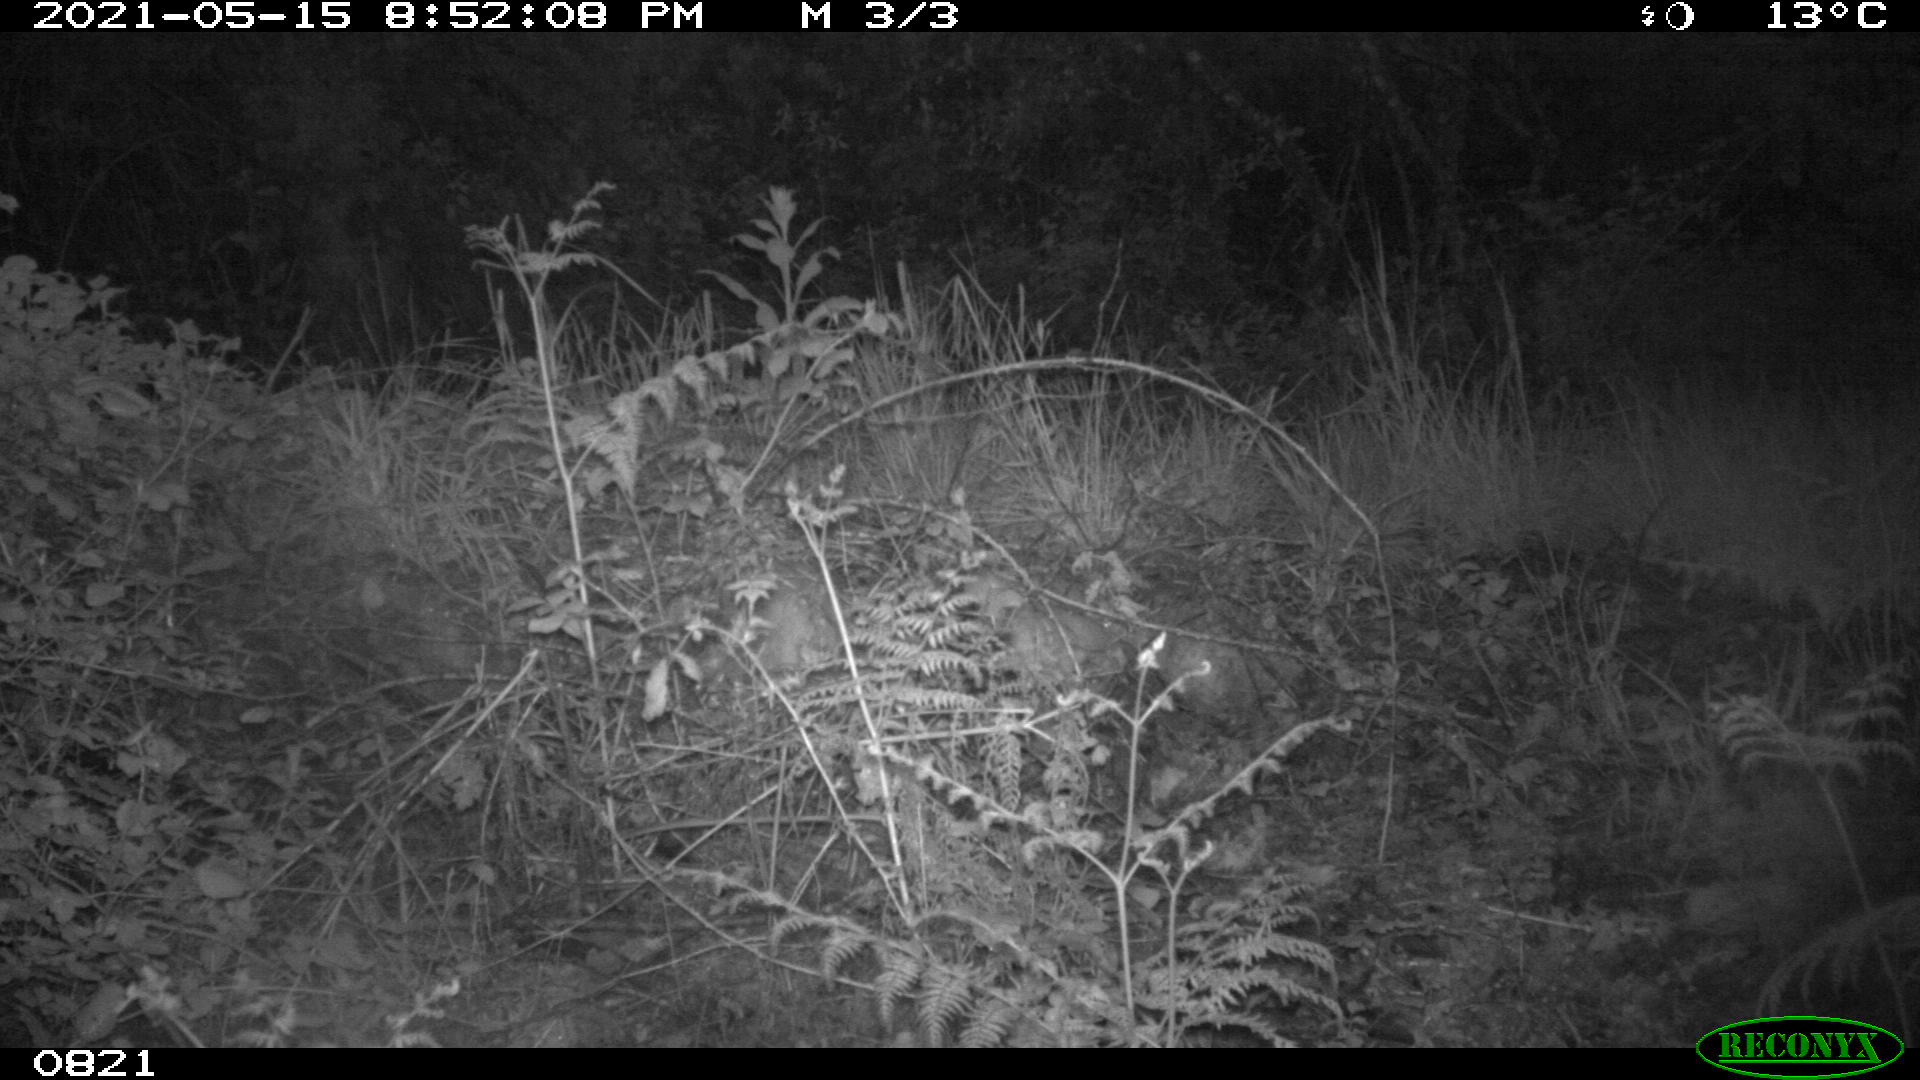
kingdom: Animalia
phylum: Chordata
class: Mammalia
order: Artiodactyla
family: Cervidae
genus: Capreolus
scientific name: Capreolus capreolus
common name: Western roe deer
